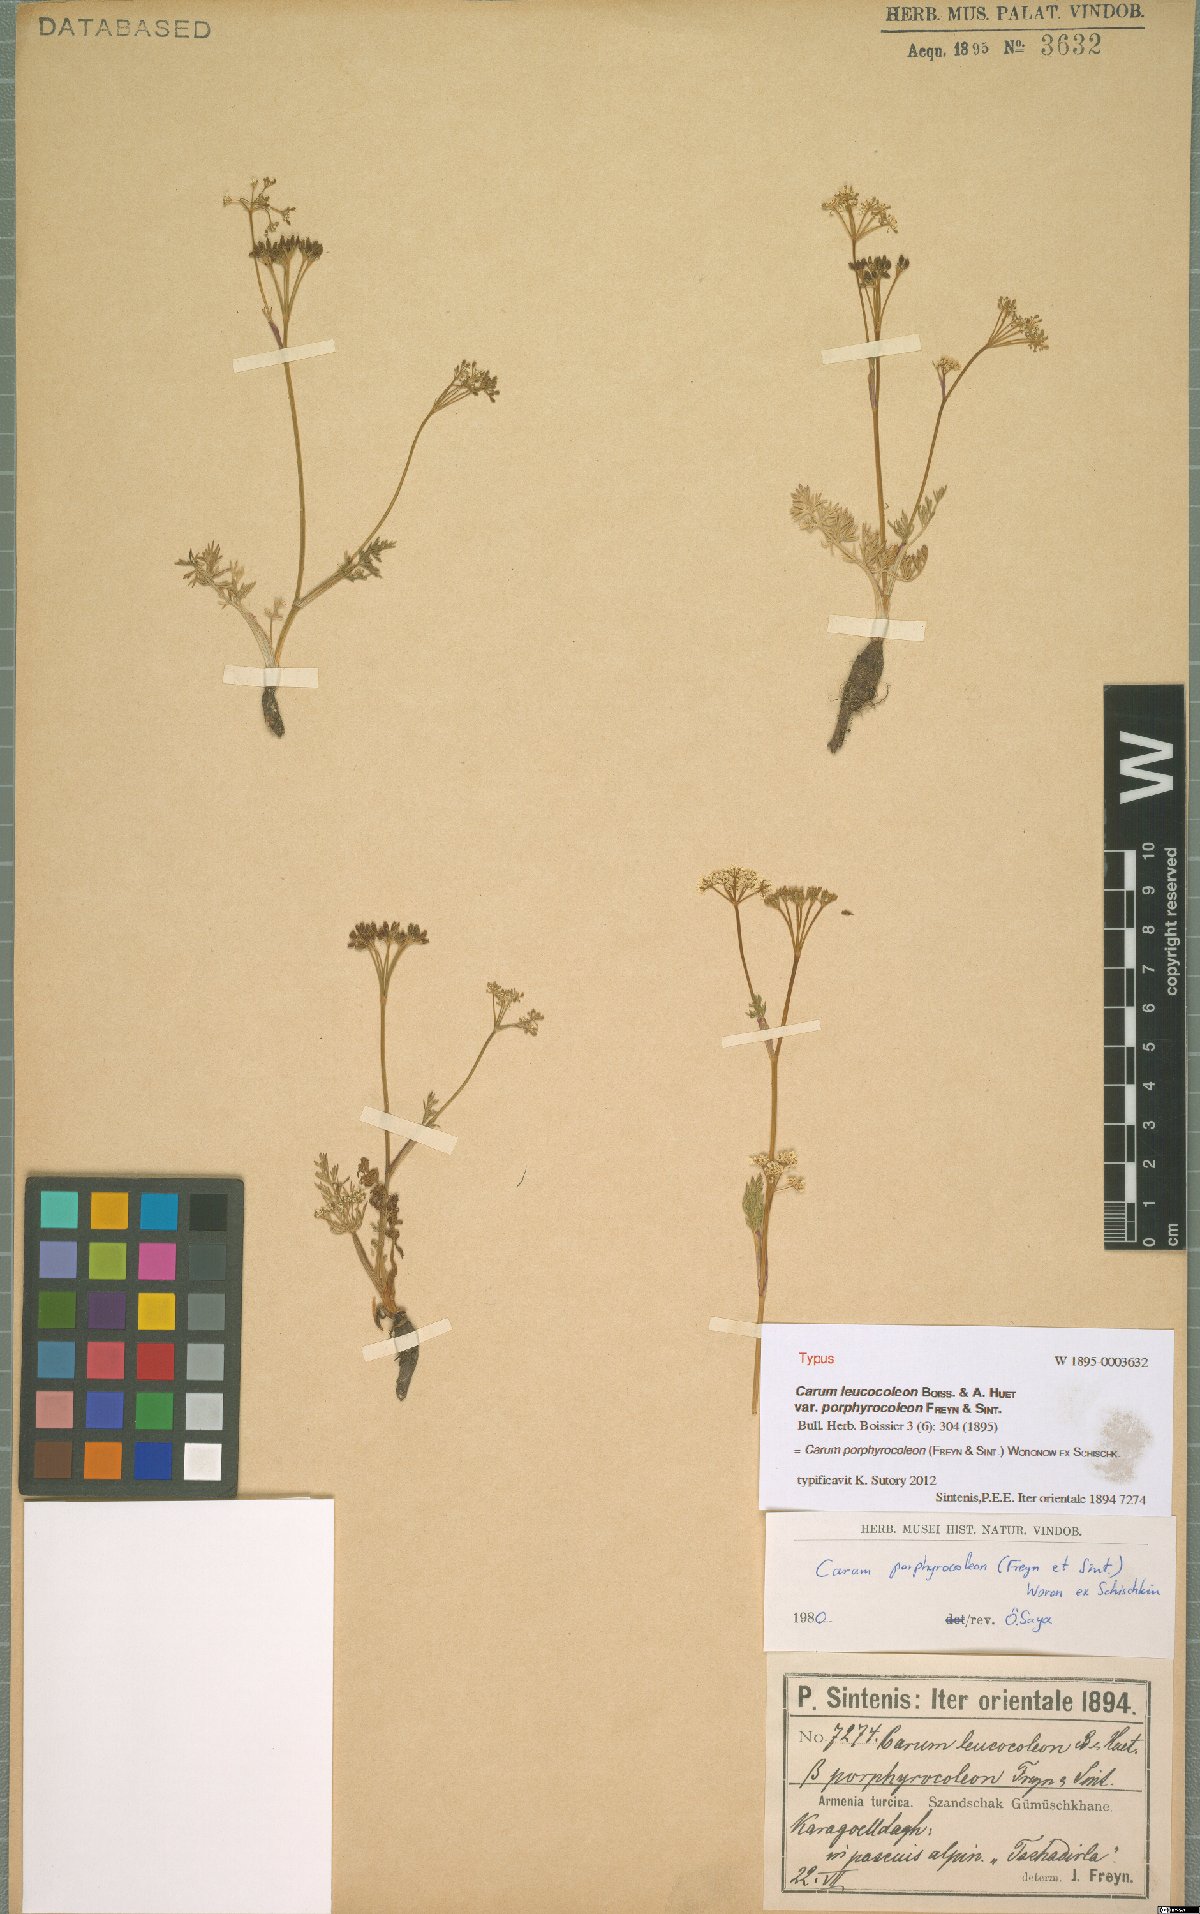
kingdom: Plantae
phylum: Tracheophyta
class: Magnoliopsida
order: Apiales
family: Apiaceae
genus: Carum
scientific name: Carum porphyrocoleon
